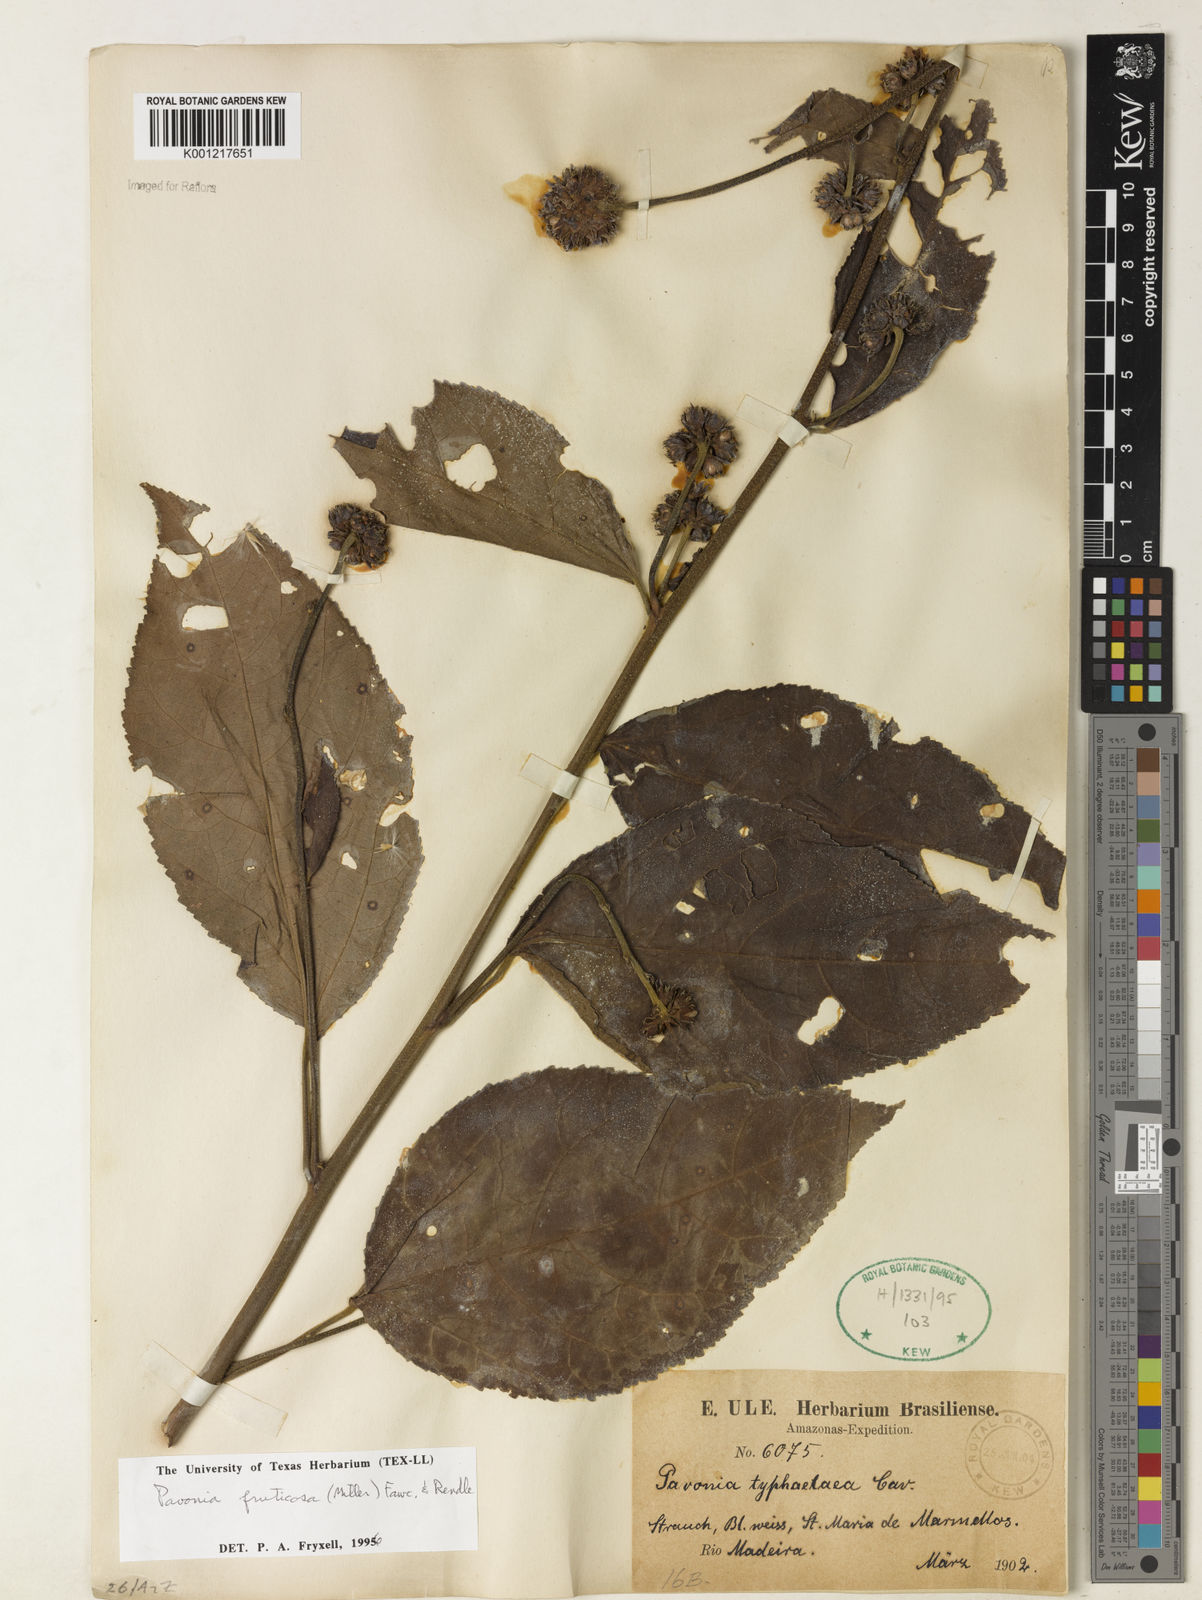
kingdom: Plantae
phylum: Tracheophyta
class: Magnoliopsida
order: Malvales
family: Malvaceae
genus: Pavonia
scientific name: Pavonia fruticosa
